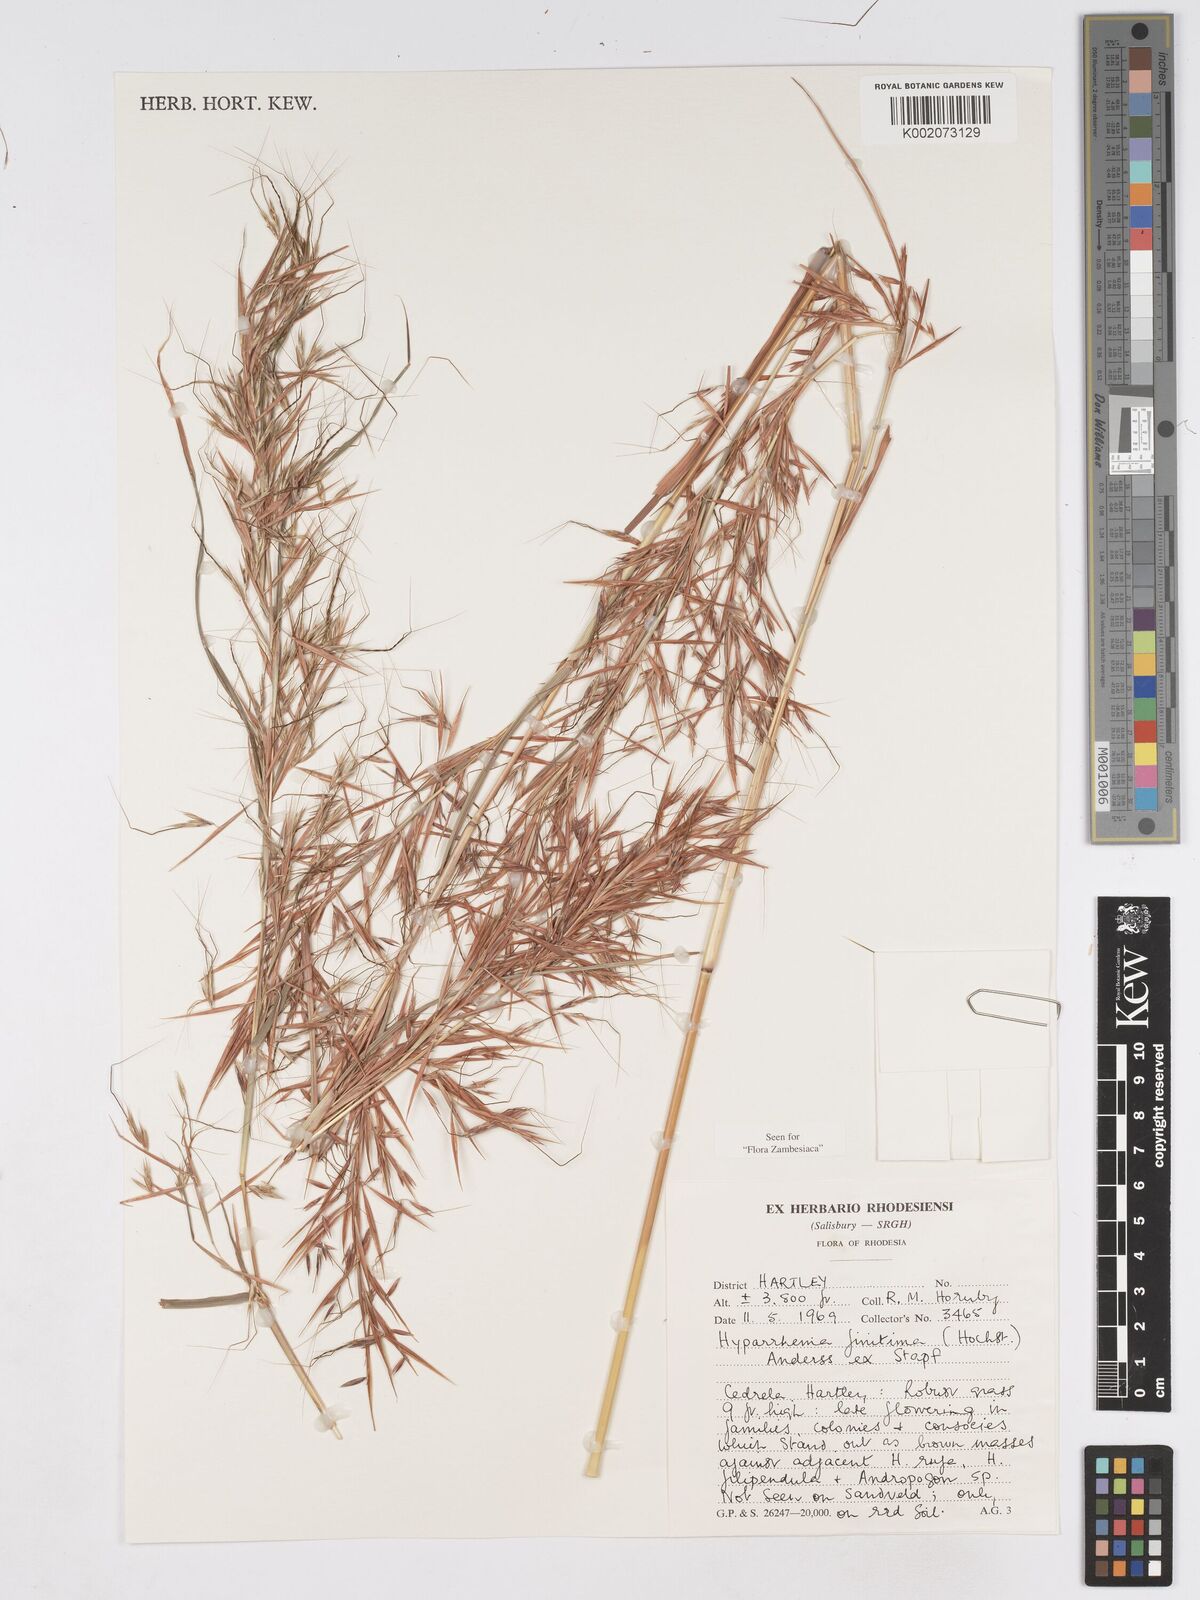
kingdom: Plantae
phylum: Tracheophyta
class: Liliopsida
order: Poales
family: Poaceae
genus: Hyparrhenia
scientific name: Hyparrhenia finitima
